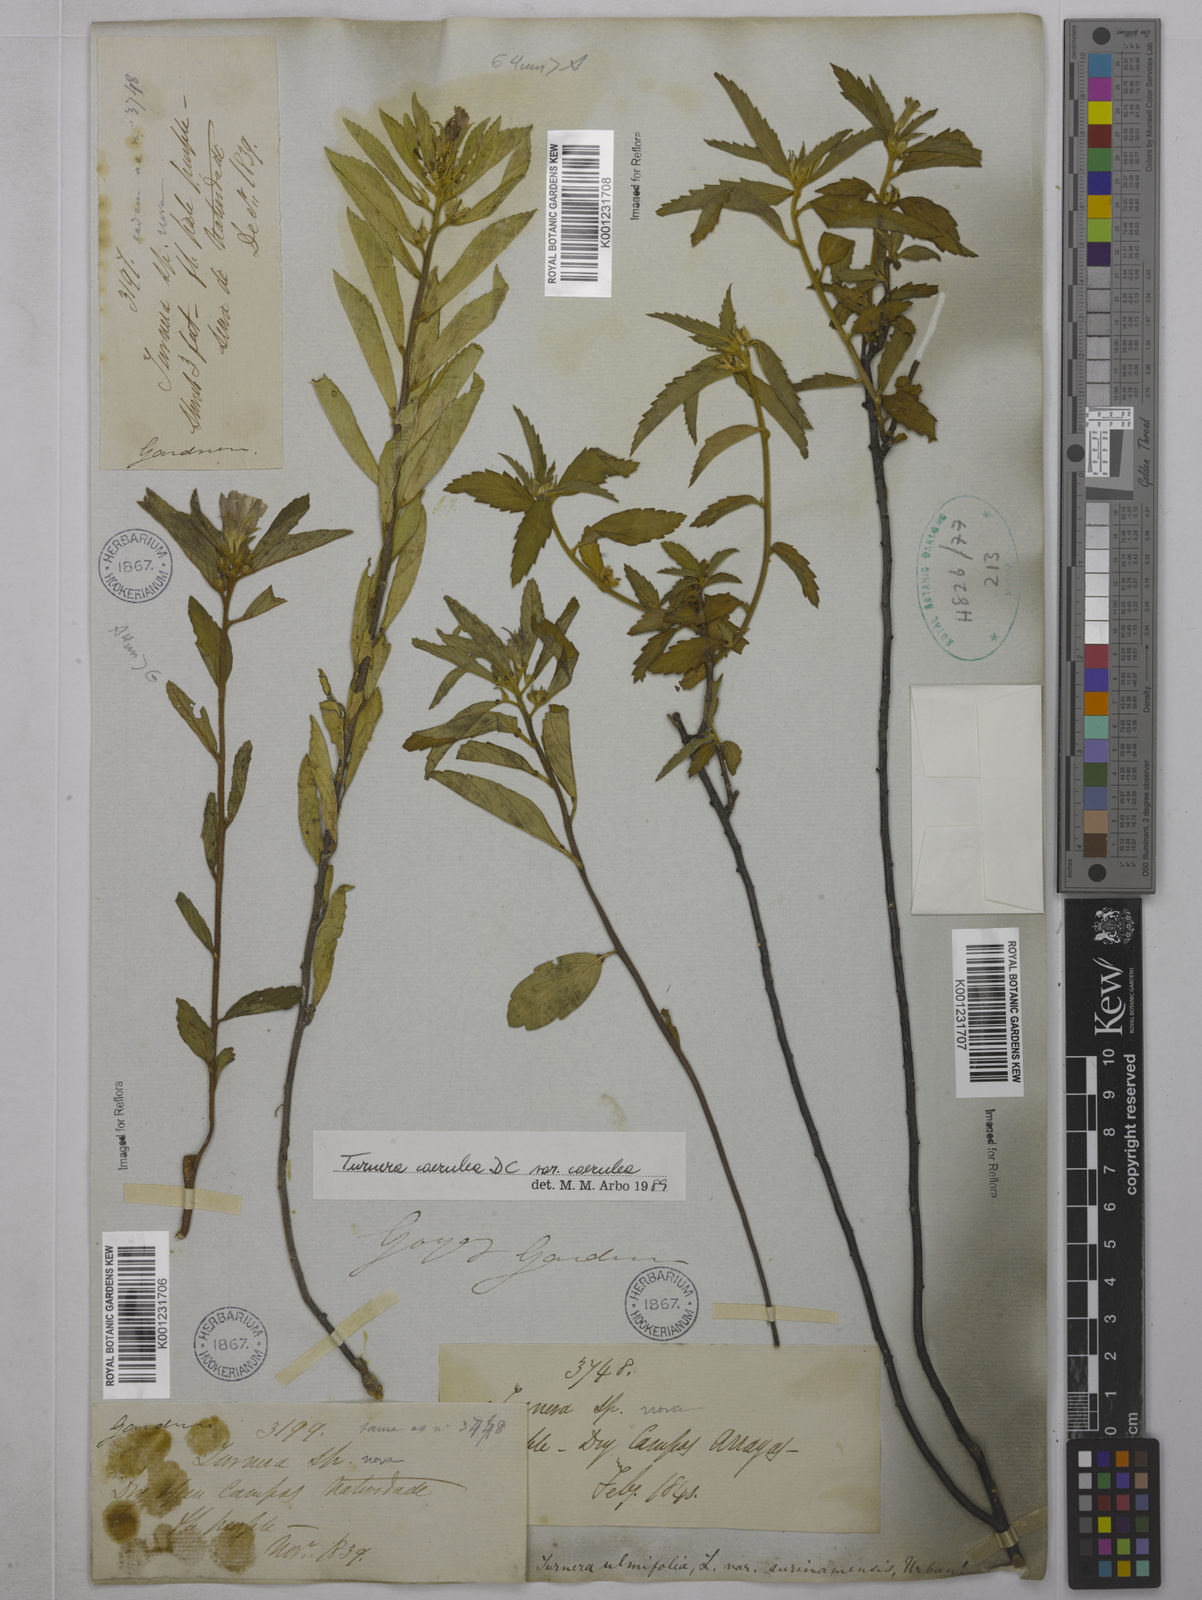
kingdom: Plantae
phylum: Tracheophyta
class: Magnoliopsida
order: Malpighiales
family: Turneraceae
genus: Turnera
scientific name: Turnera
